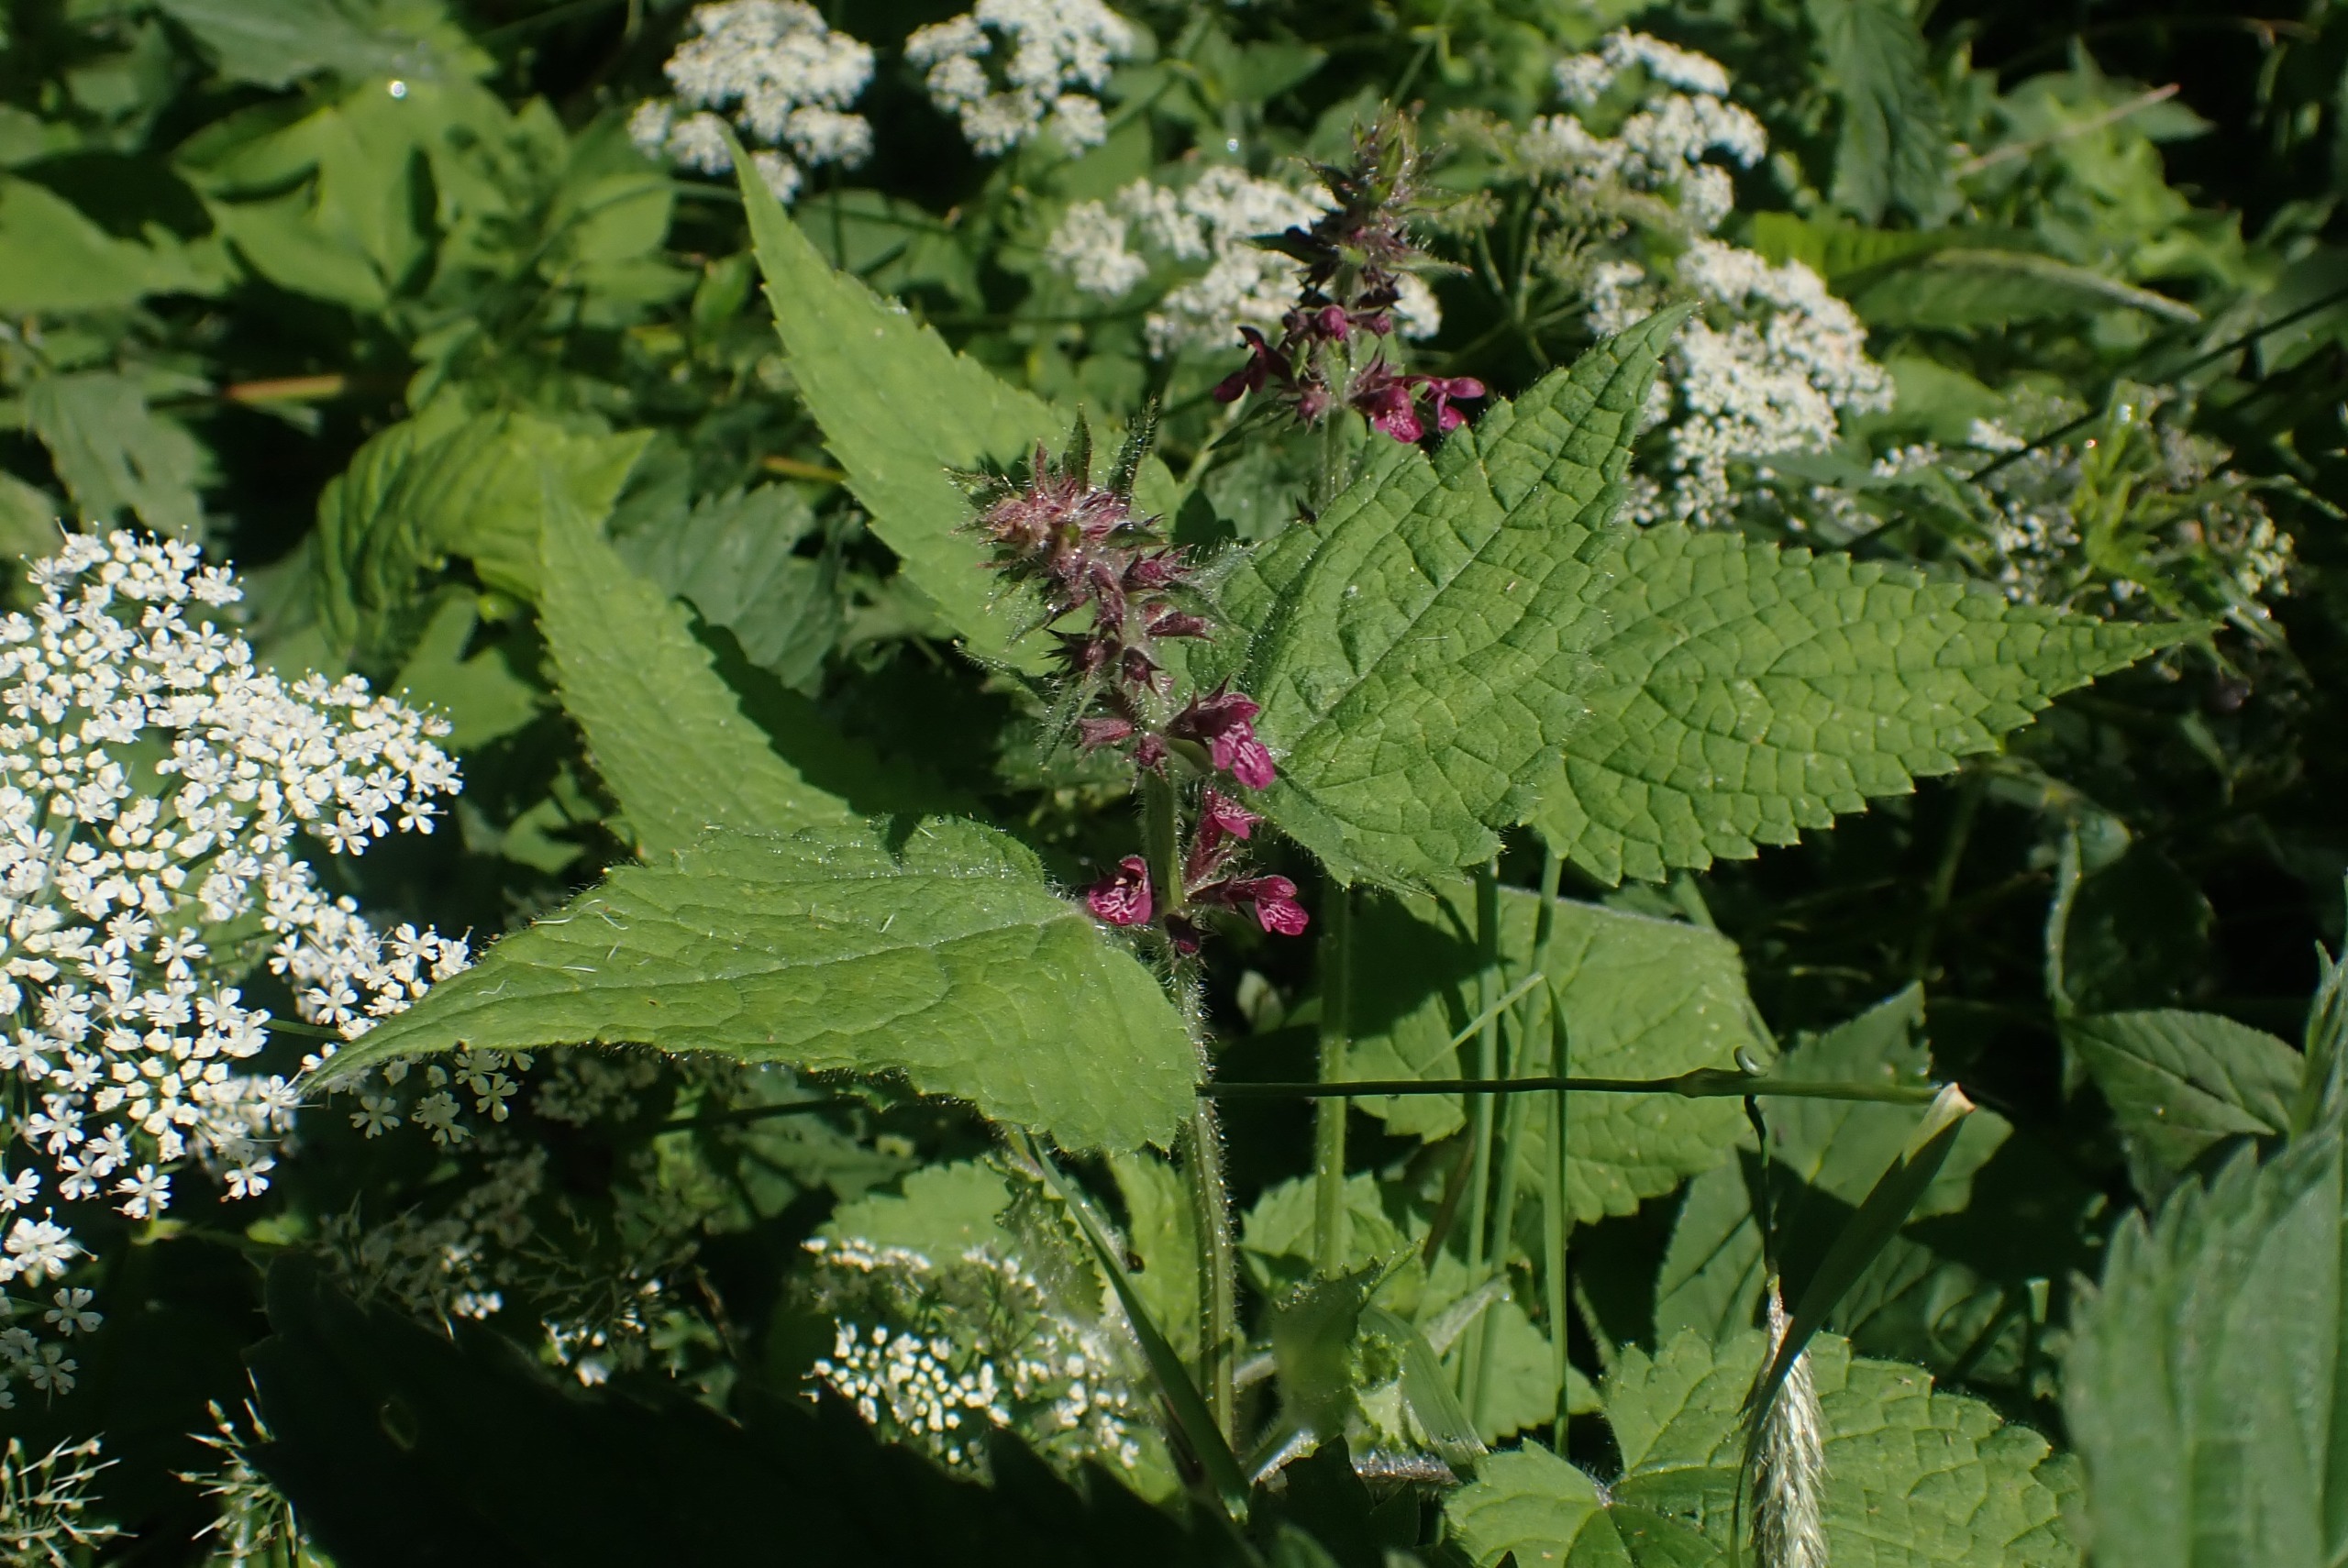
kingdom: Plantae
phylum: Tracheophyta
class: Magnoliopsida
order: Lamiales
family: Lamiaceae
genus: Stachys
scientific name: Stachys sylvatica
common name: Skov-galtetand
